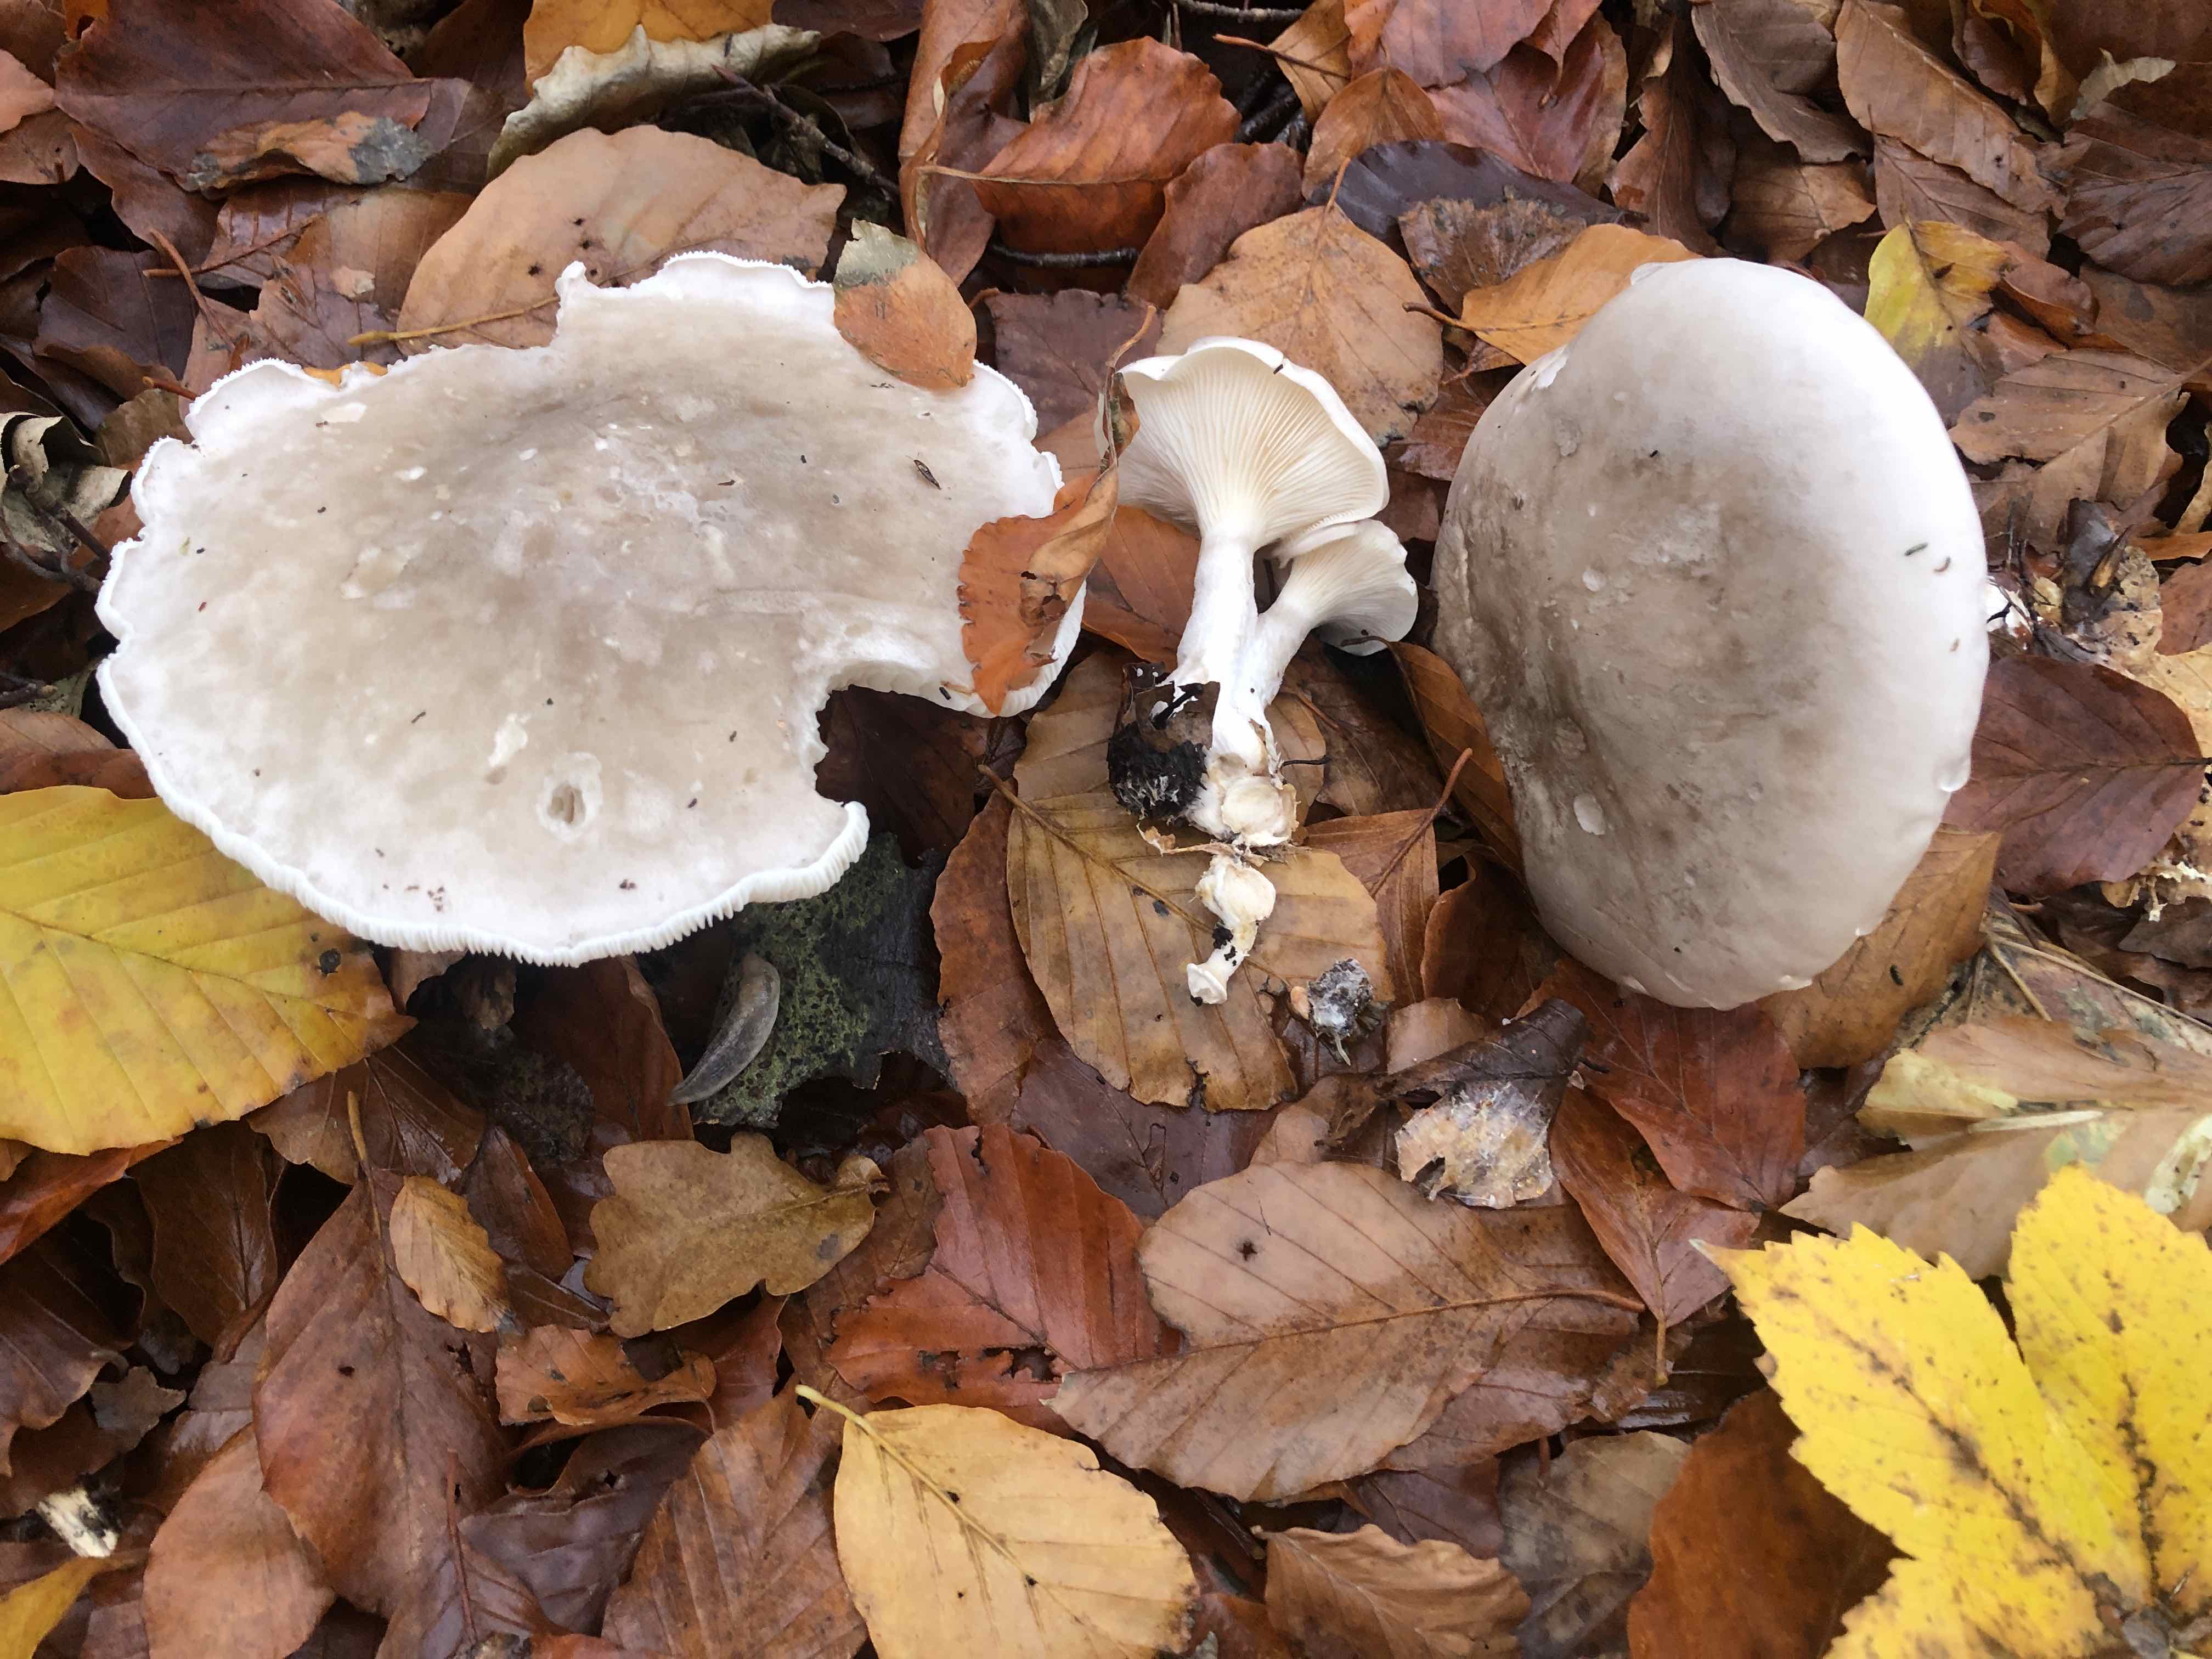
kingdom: Fungi
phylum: Basidiomycota
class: Agaricomycetes
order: Agaricales
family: Tricholomataceae
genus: Clitocybe
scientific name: Clitocybe nebularis
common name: tåge-tragthat
